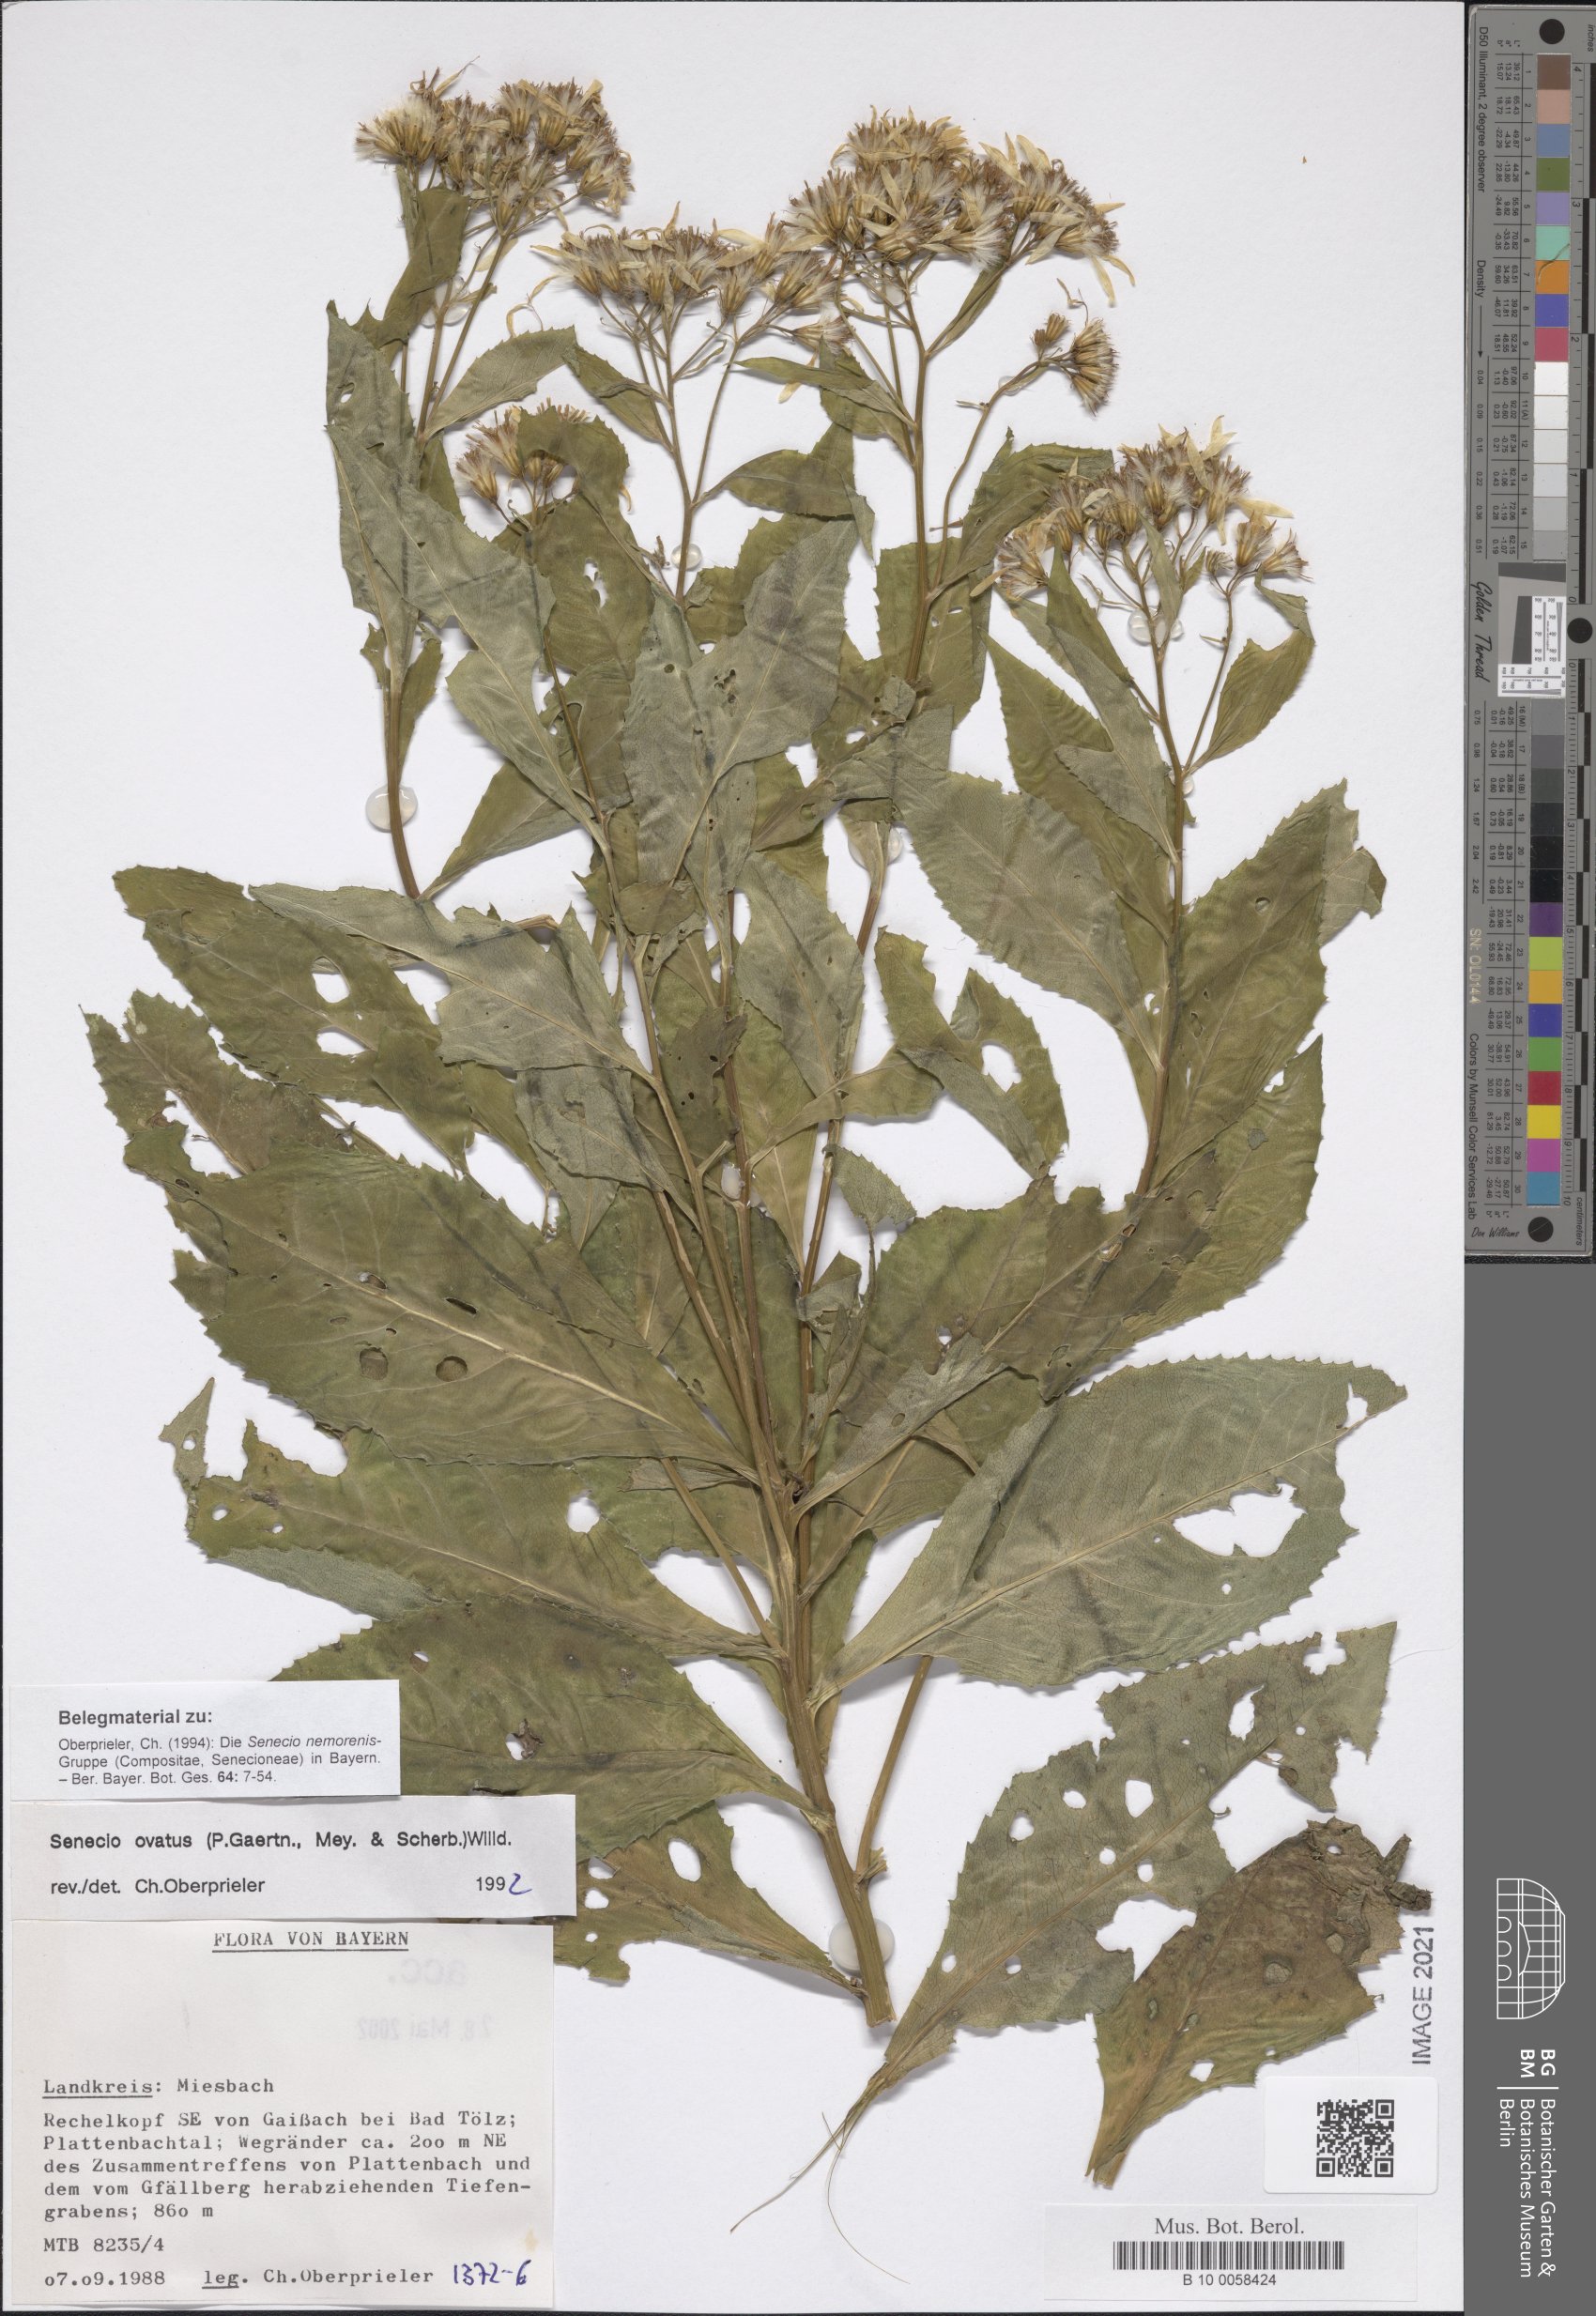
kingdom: Plantae
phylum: Tracheophyta
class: Magnoliopsida
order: Asterales
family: Asteraceae
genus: Senecio
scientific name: Senecio ovatus
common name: Wood ragwort
